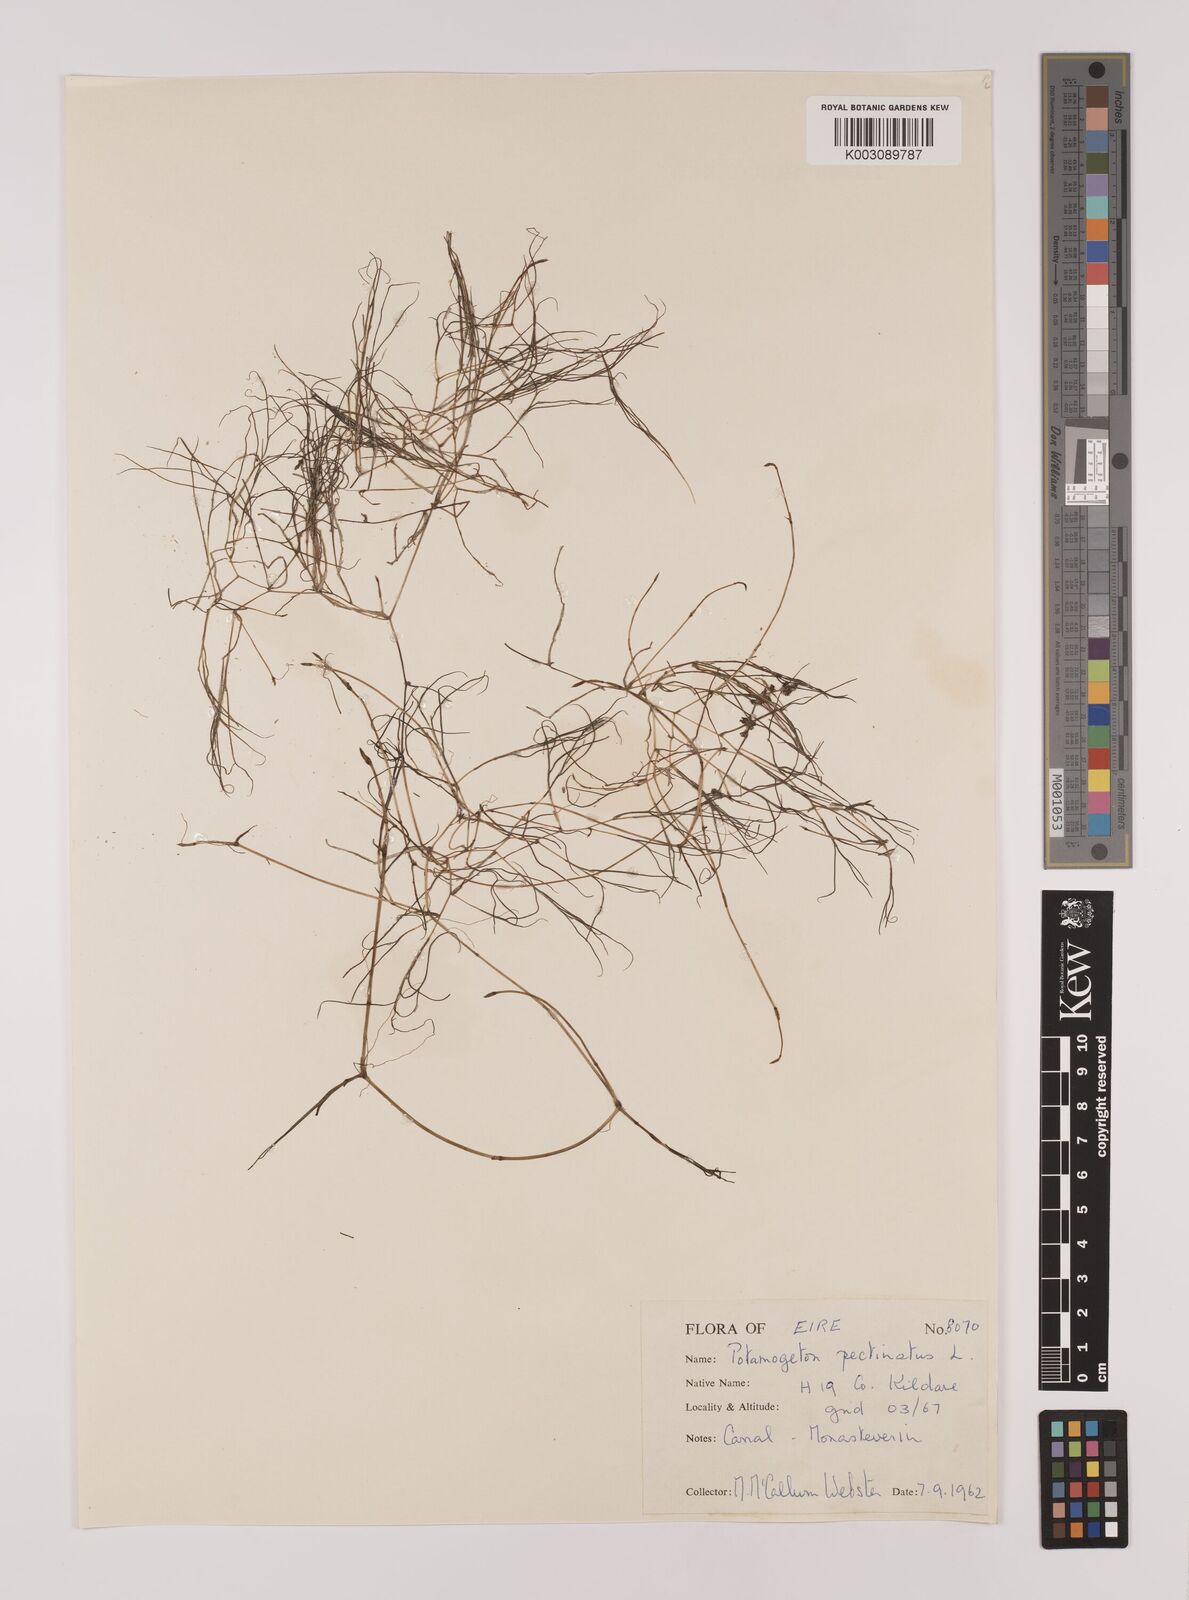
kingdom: Plantae
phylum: Tracheophyta
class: Liliopsida
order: Alismatales
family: Potamogetonaceae
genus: Stuckenia
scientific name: Stuckenia pectinata
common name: Sago pondweed
